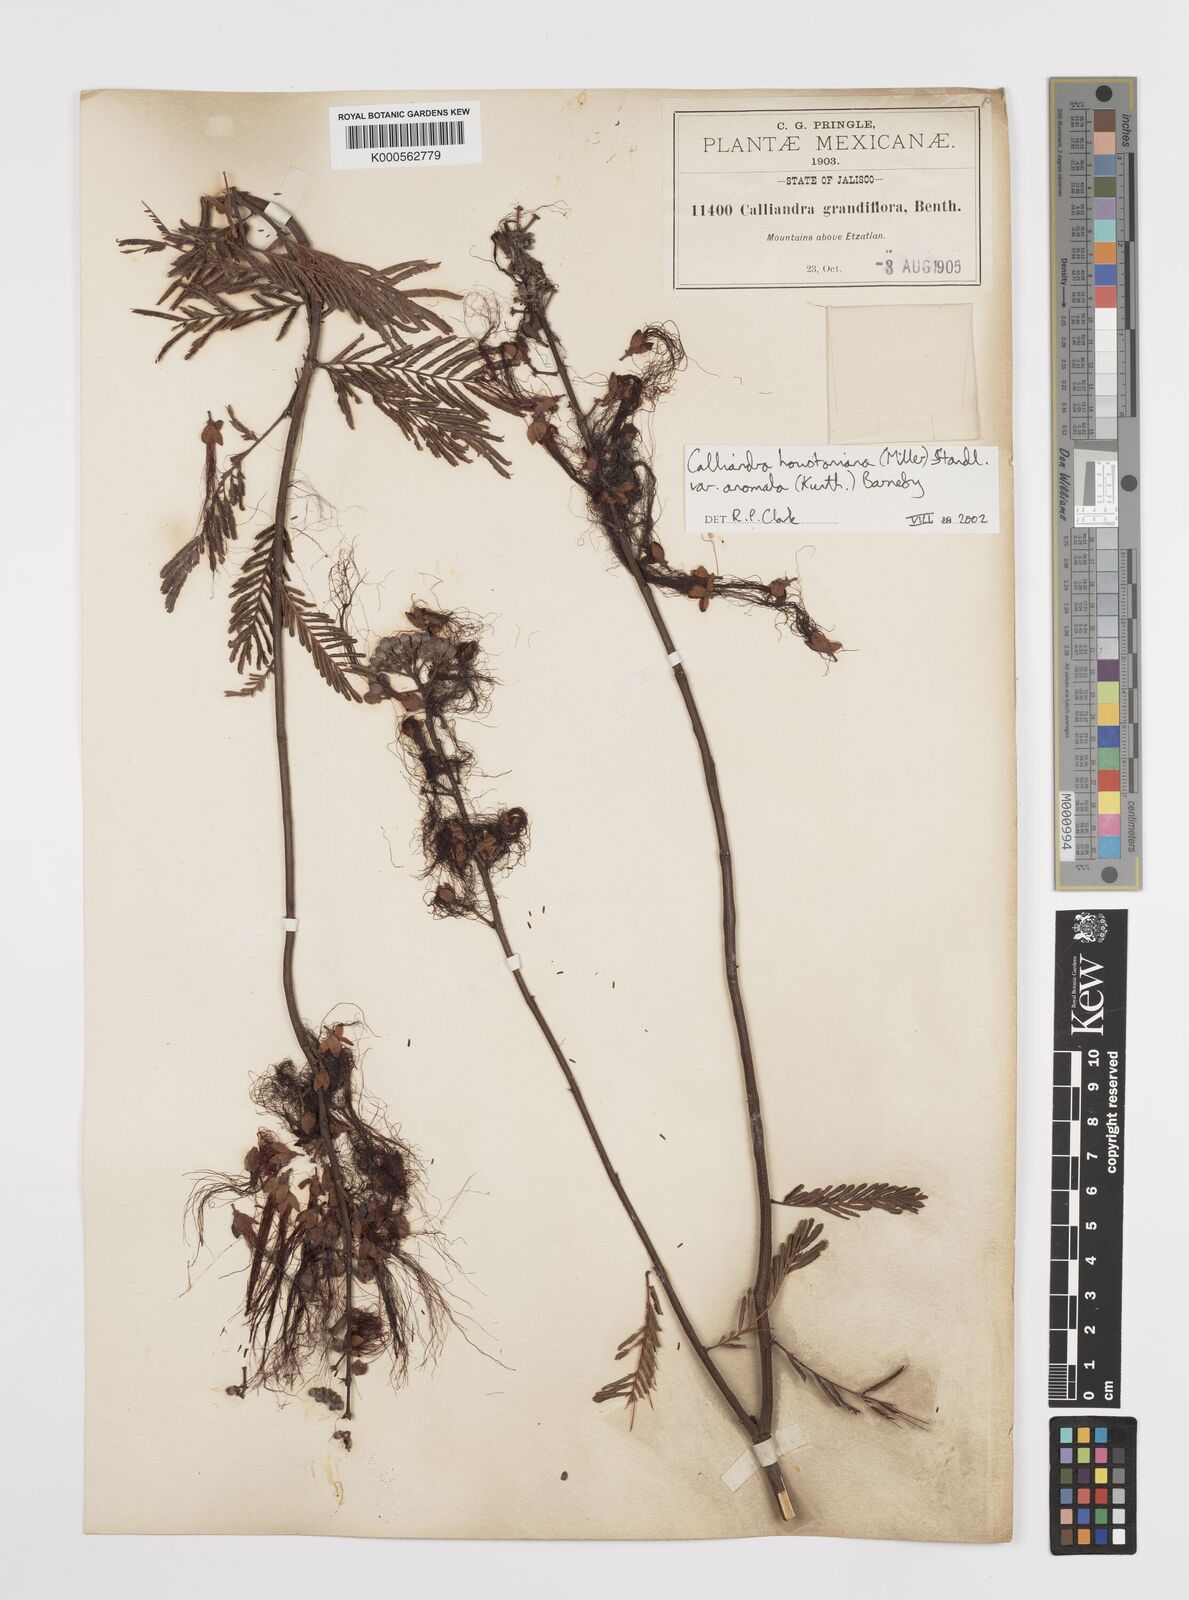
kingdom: Plantae
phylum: Tracheophyta
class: Magnoliopsida
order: Fabales
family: Fabaceae
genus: Calliandra
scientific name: Calliandra houstoniana
